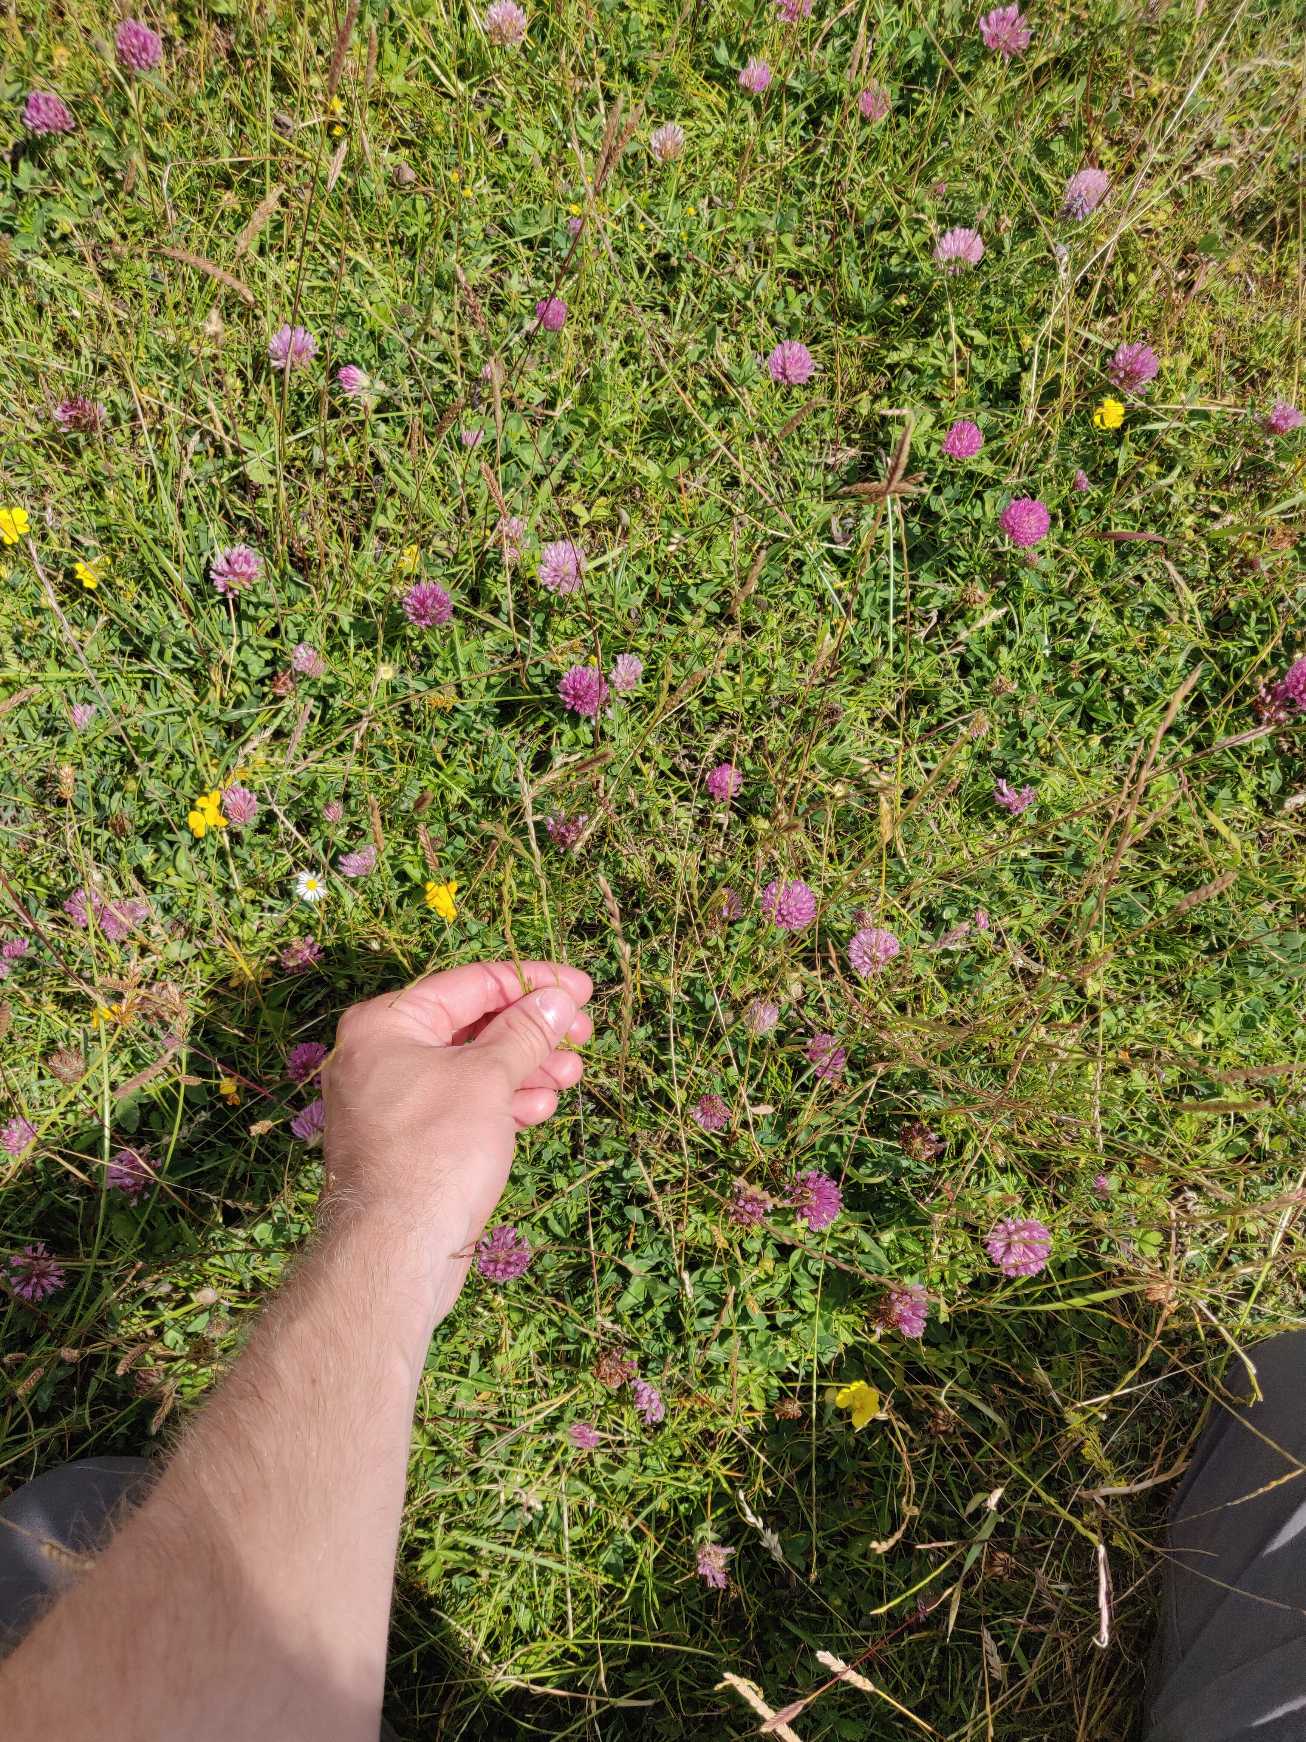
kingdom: Plantae
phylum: Tracheophyta
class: Liliopsida
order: Poales
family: Poaceae
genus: Lolium
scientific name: Lolium perenne
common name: Almindelig rajgræs
